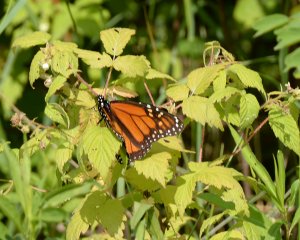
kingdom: Animalia
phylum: Arthropoda
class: Insecta
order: Lepidoptera
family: Nymphalidae
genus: Danaus
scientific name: Danaus plexippus
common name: Monarch
